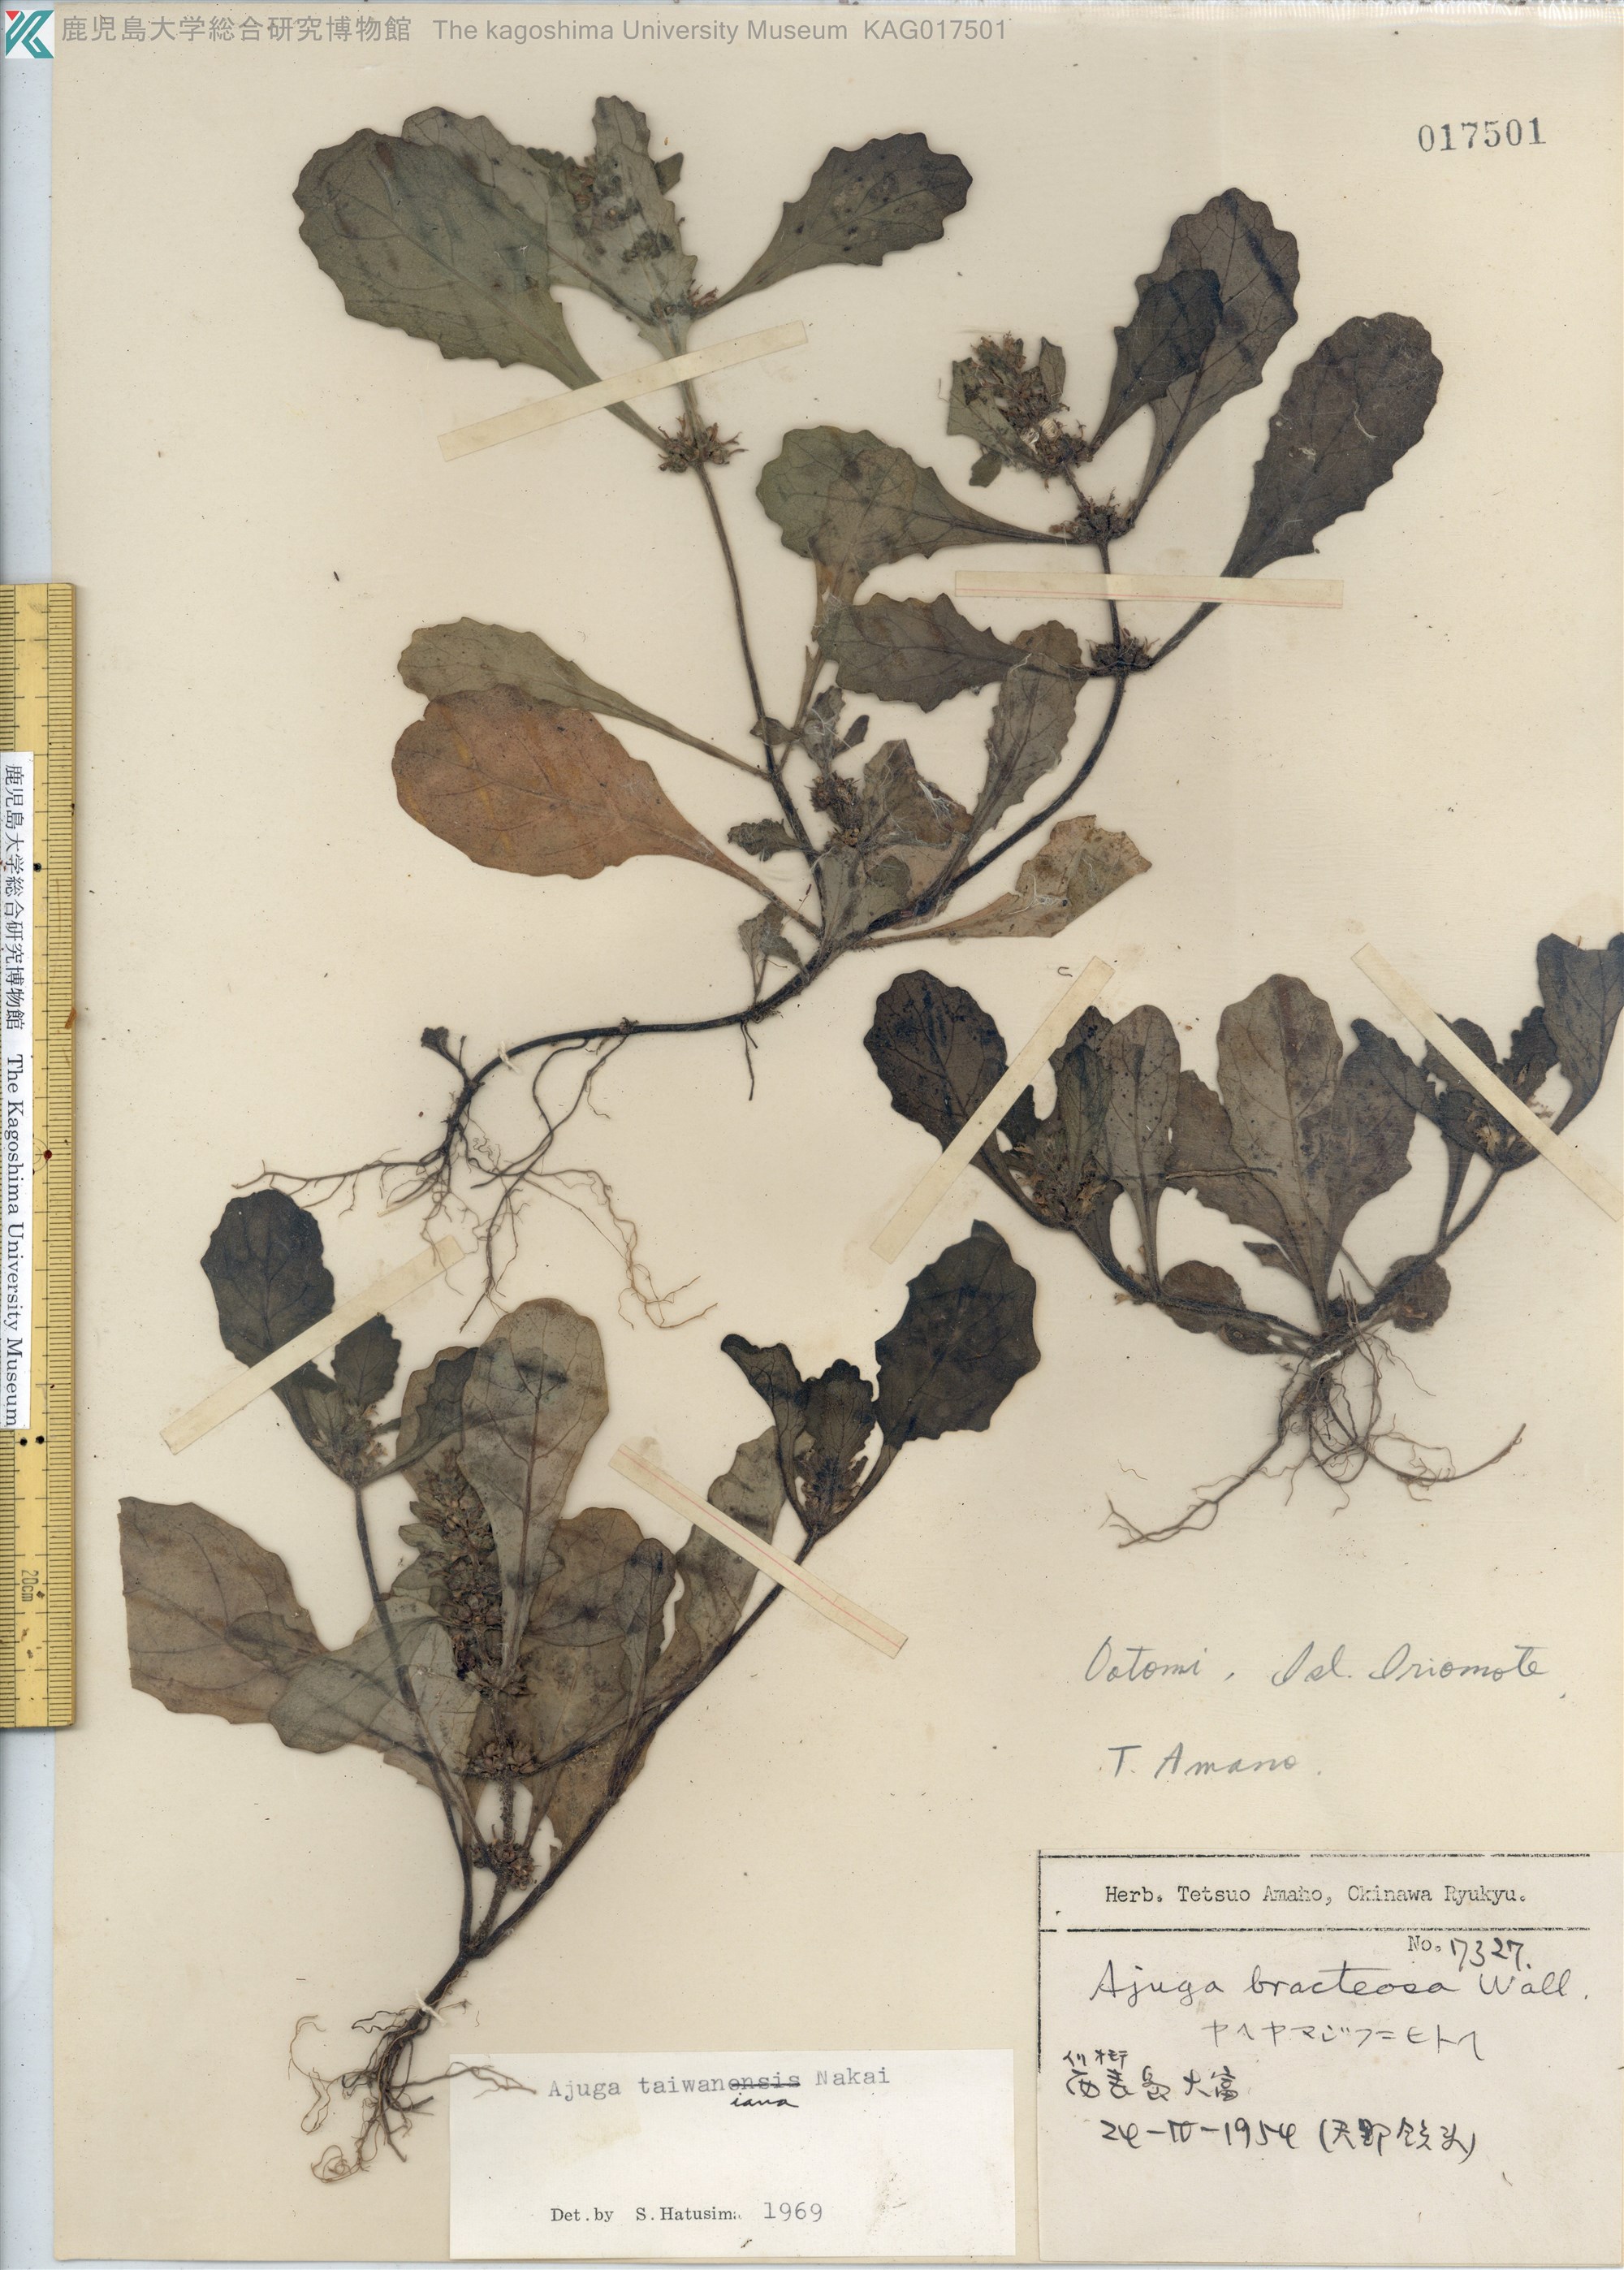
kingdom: Plantae
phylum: Tracheophyta
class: Magnoliopsida
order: Lamiales
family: Lamiaceae
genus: Ajuga
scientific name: Ajuga taiwanensis
